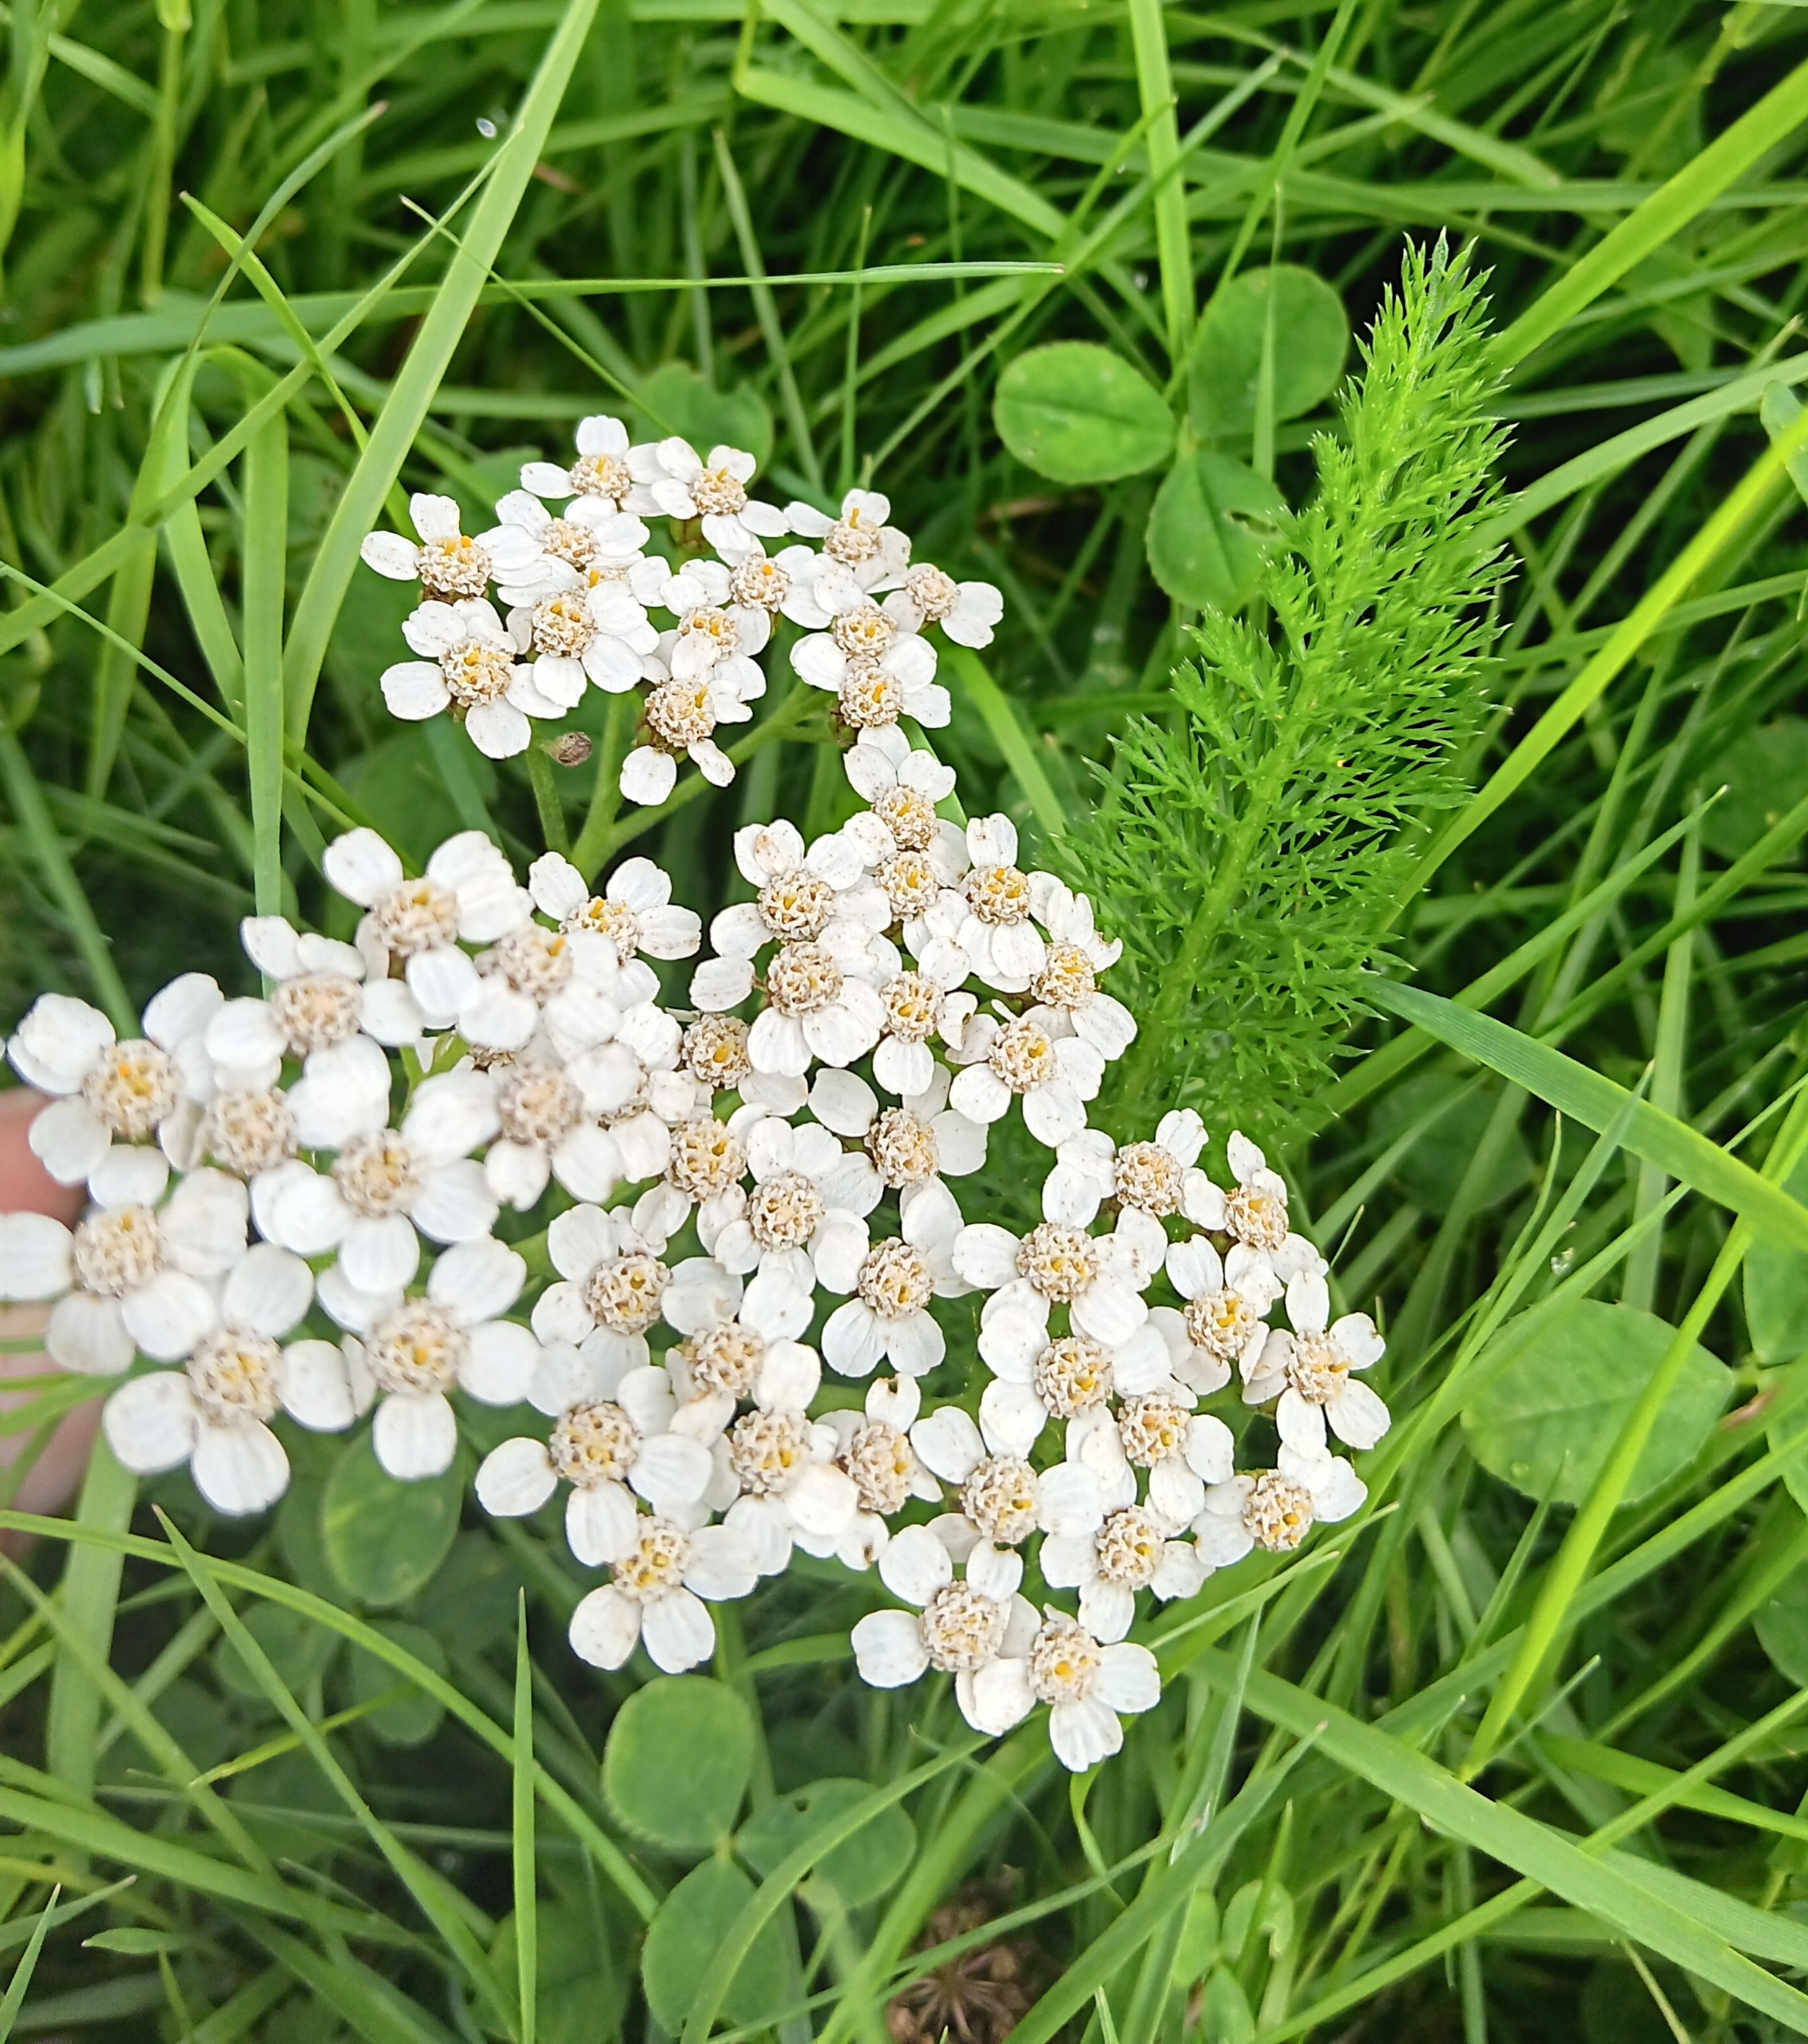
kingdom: Plantae
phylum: Tracheophyta
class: Magnoliopsida
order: Asterales
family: Asteraceae
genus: Achillea
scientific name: Achillea millefolium
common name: Almindelig røllike
